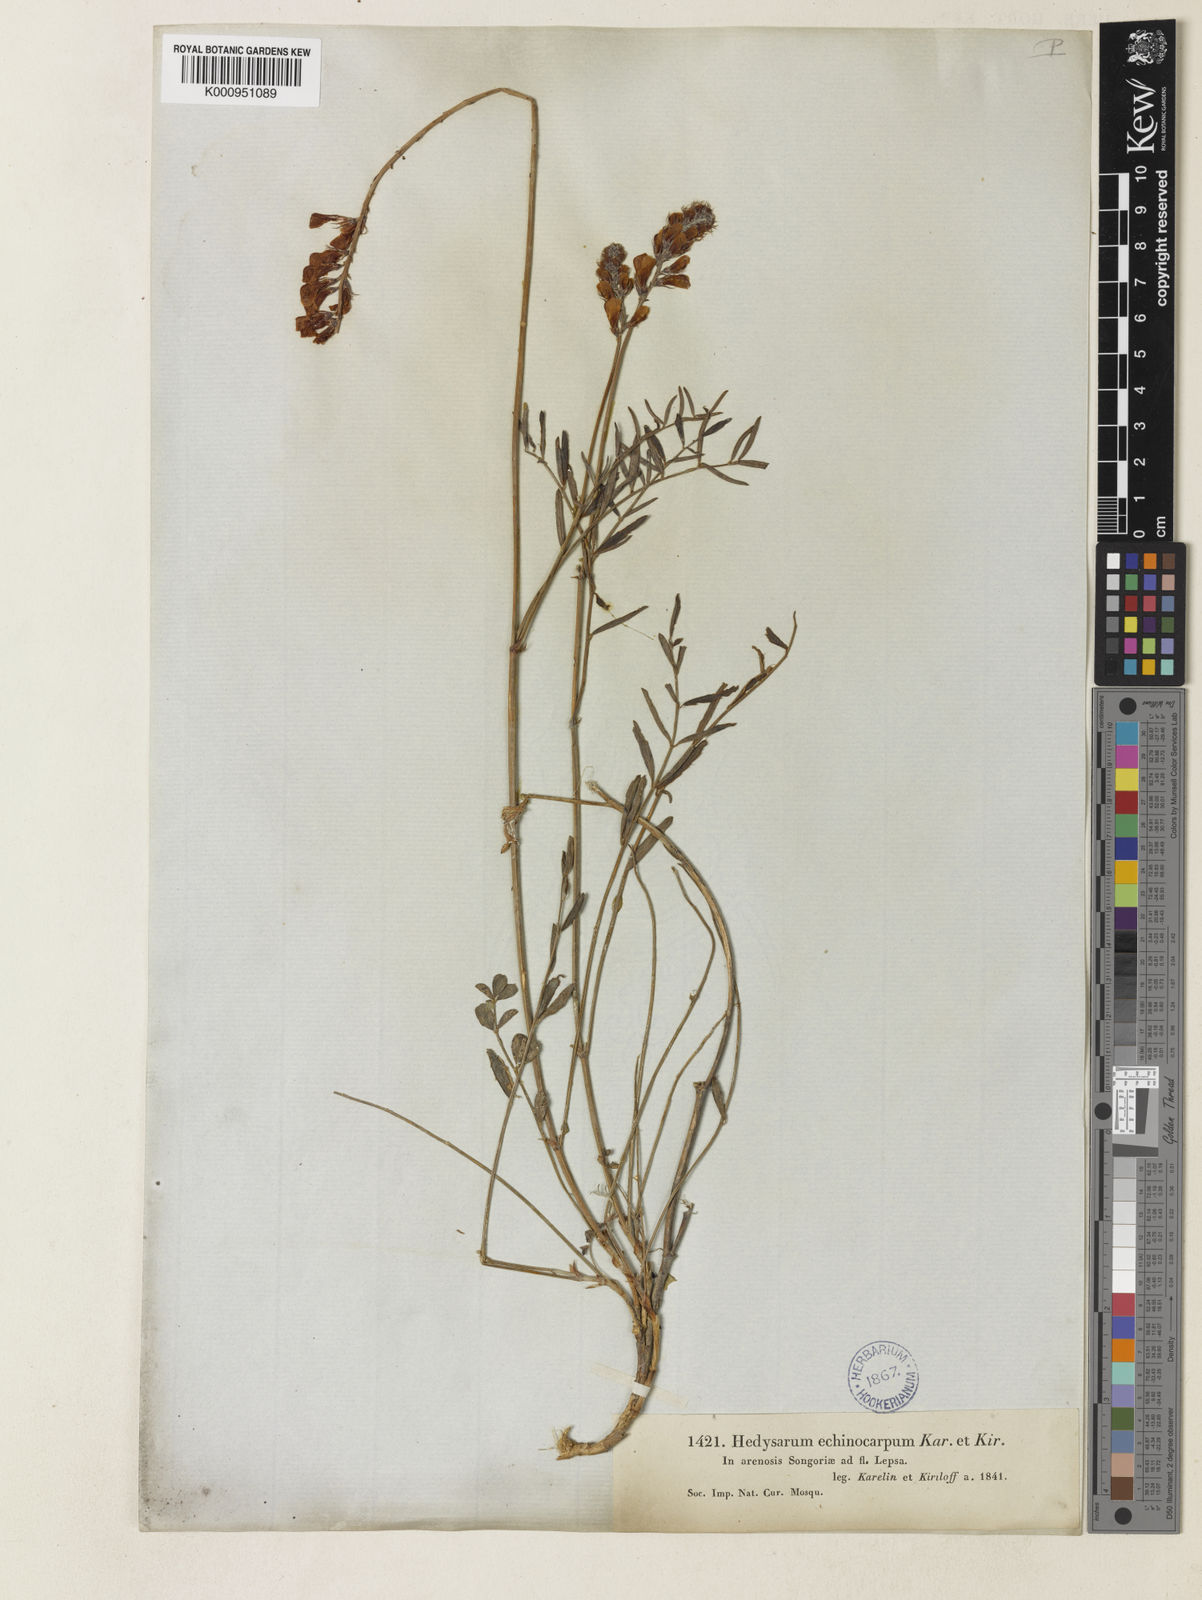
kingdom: Plantae
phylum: Tracheophyta
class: Magnoliopsida
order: Fabales
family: Fabaceae
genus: Hedysarum
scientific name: Hedysarum songaricum
